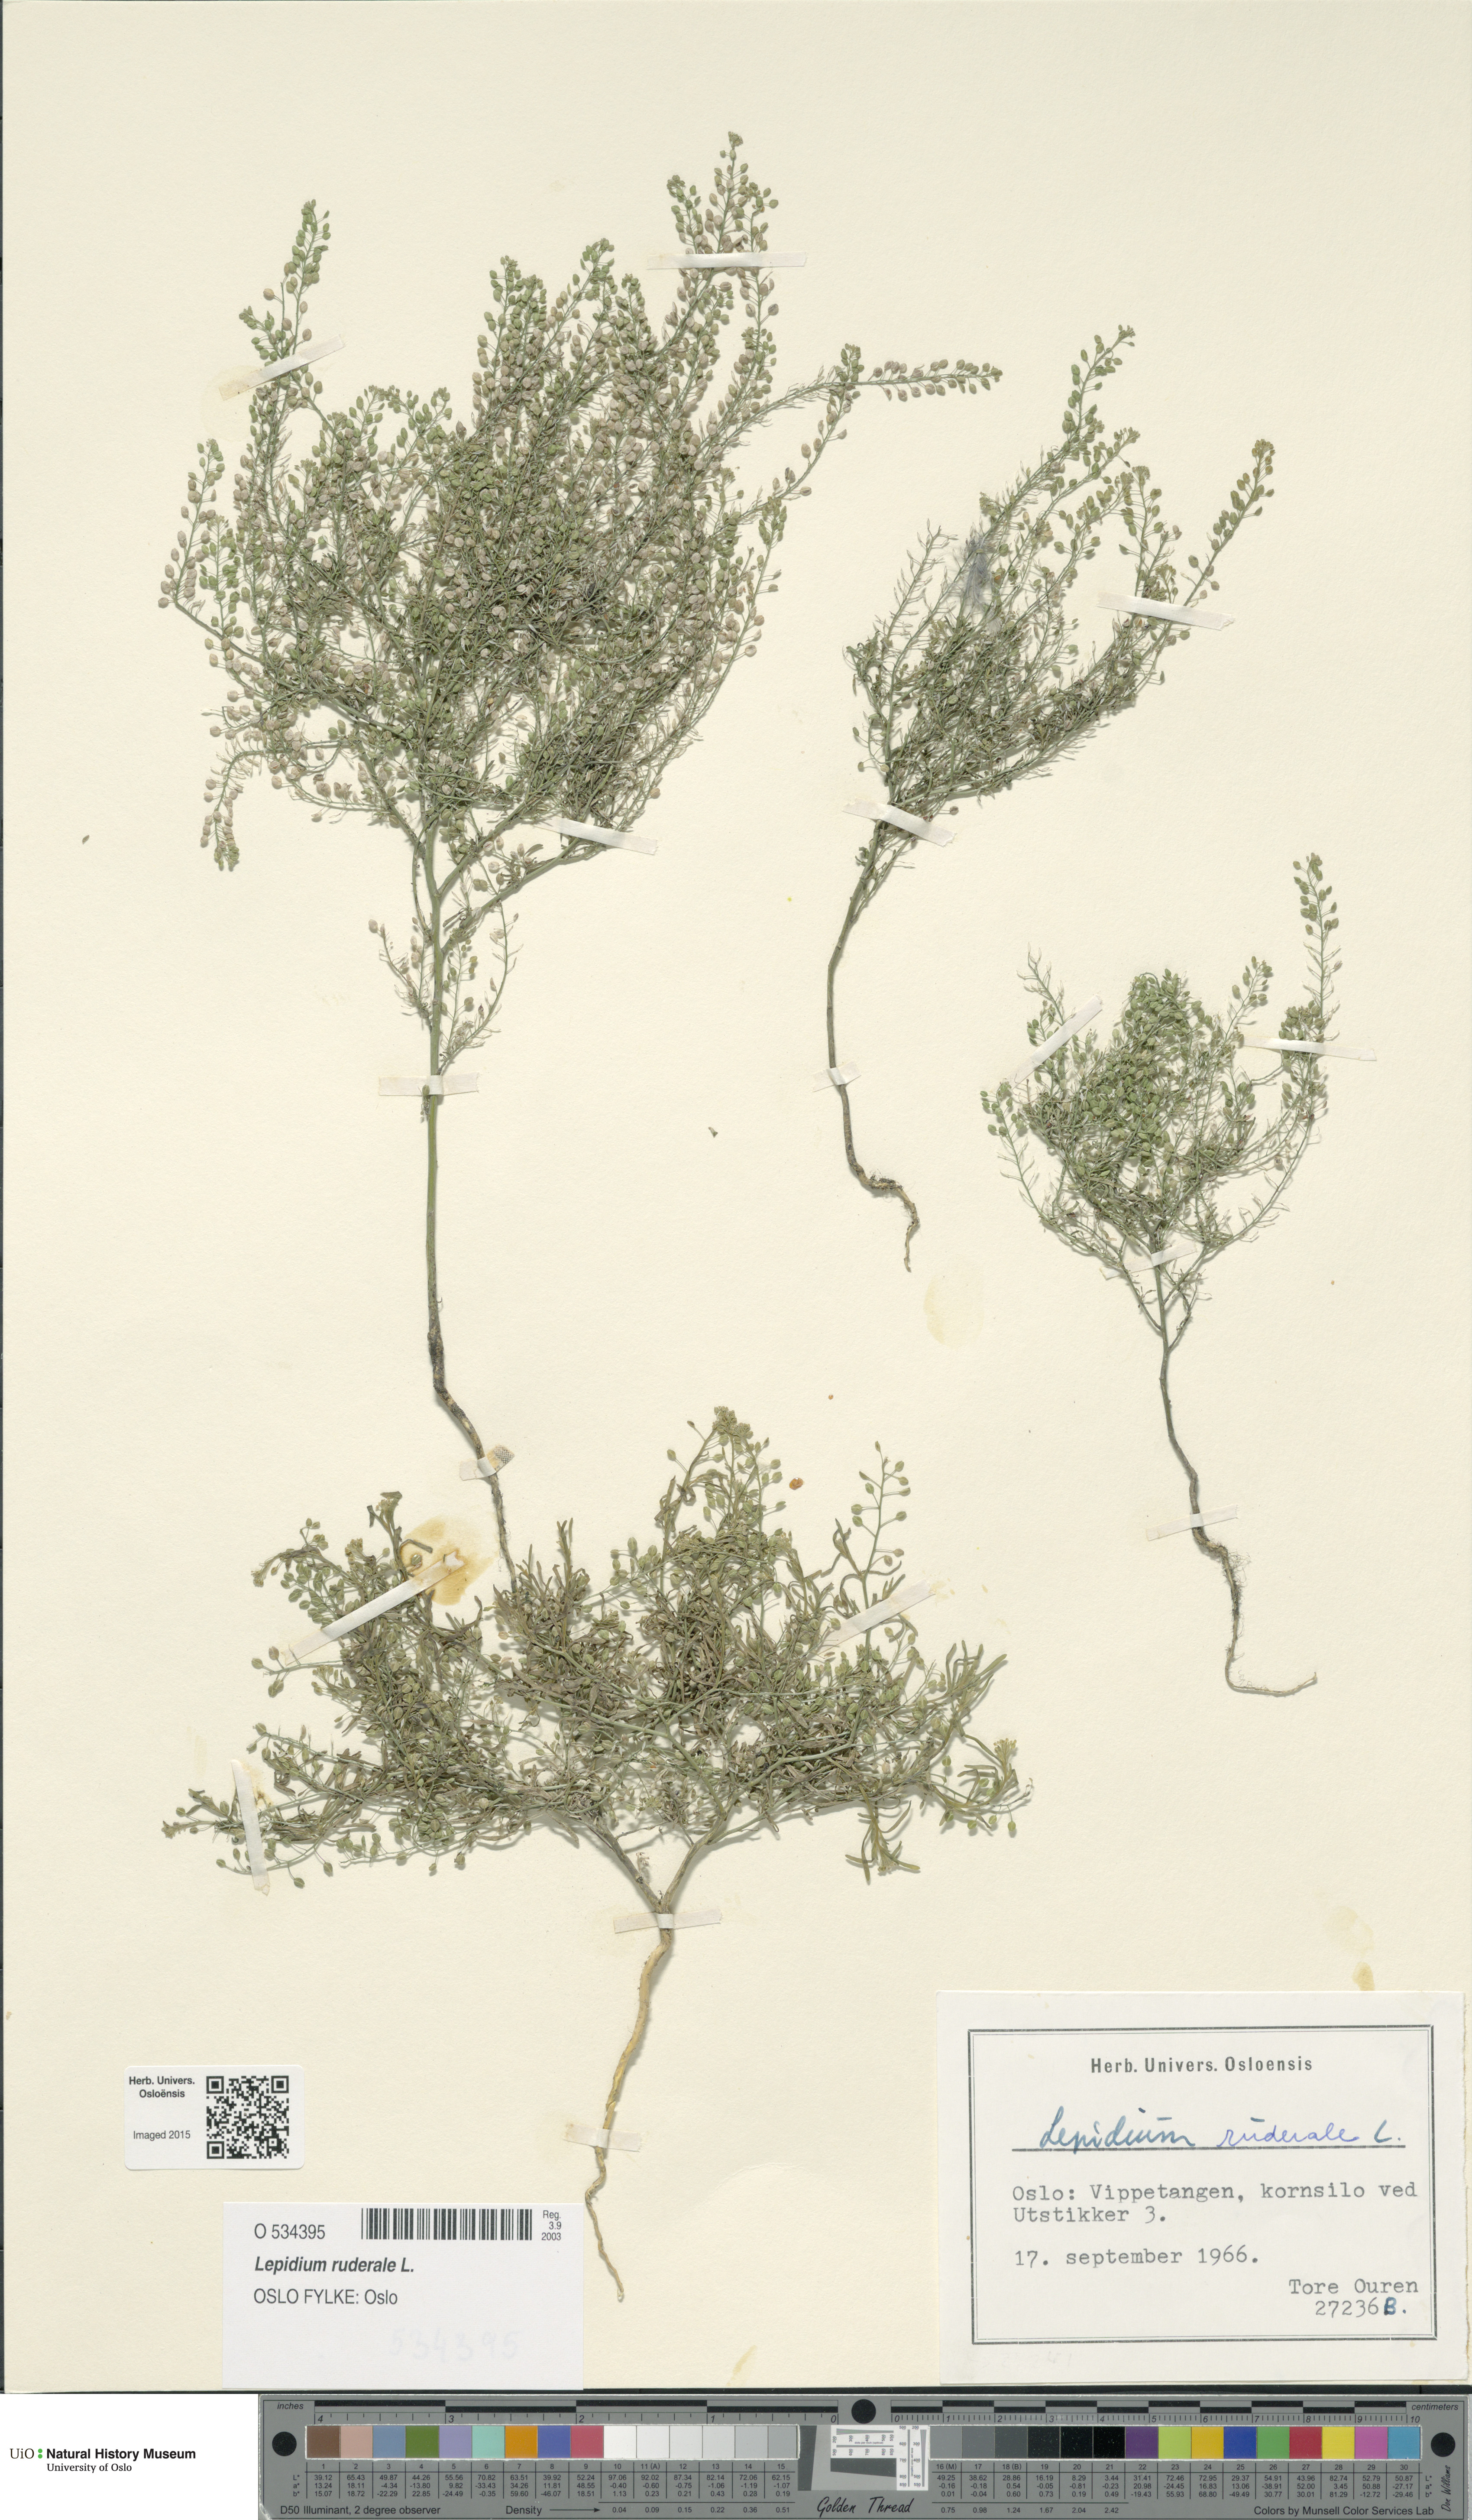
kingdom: Plantae
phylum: Tracheophyta
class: Magnoliopsida
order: Brassicales
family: Brassicaceae
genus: Lepidium
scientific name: Lepidium ruderale
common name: Narrow-leaved pepperwort
